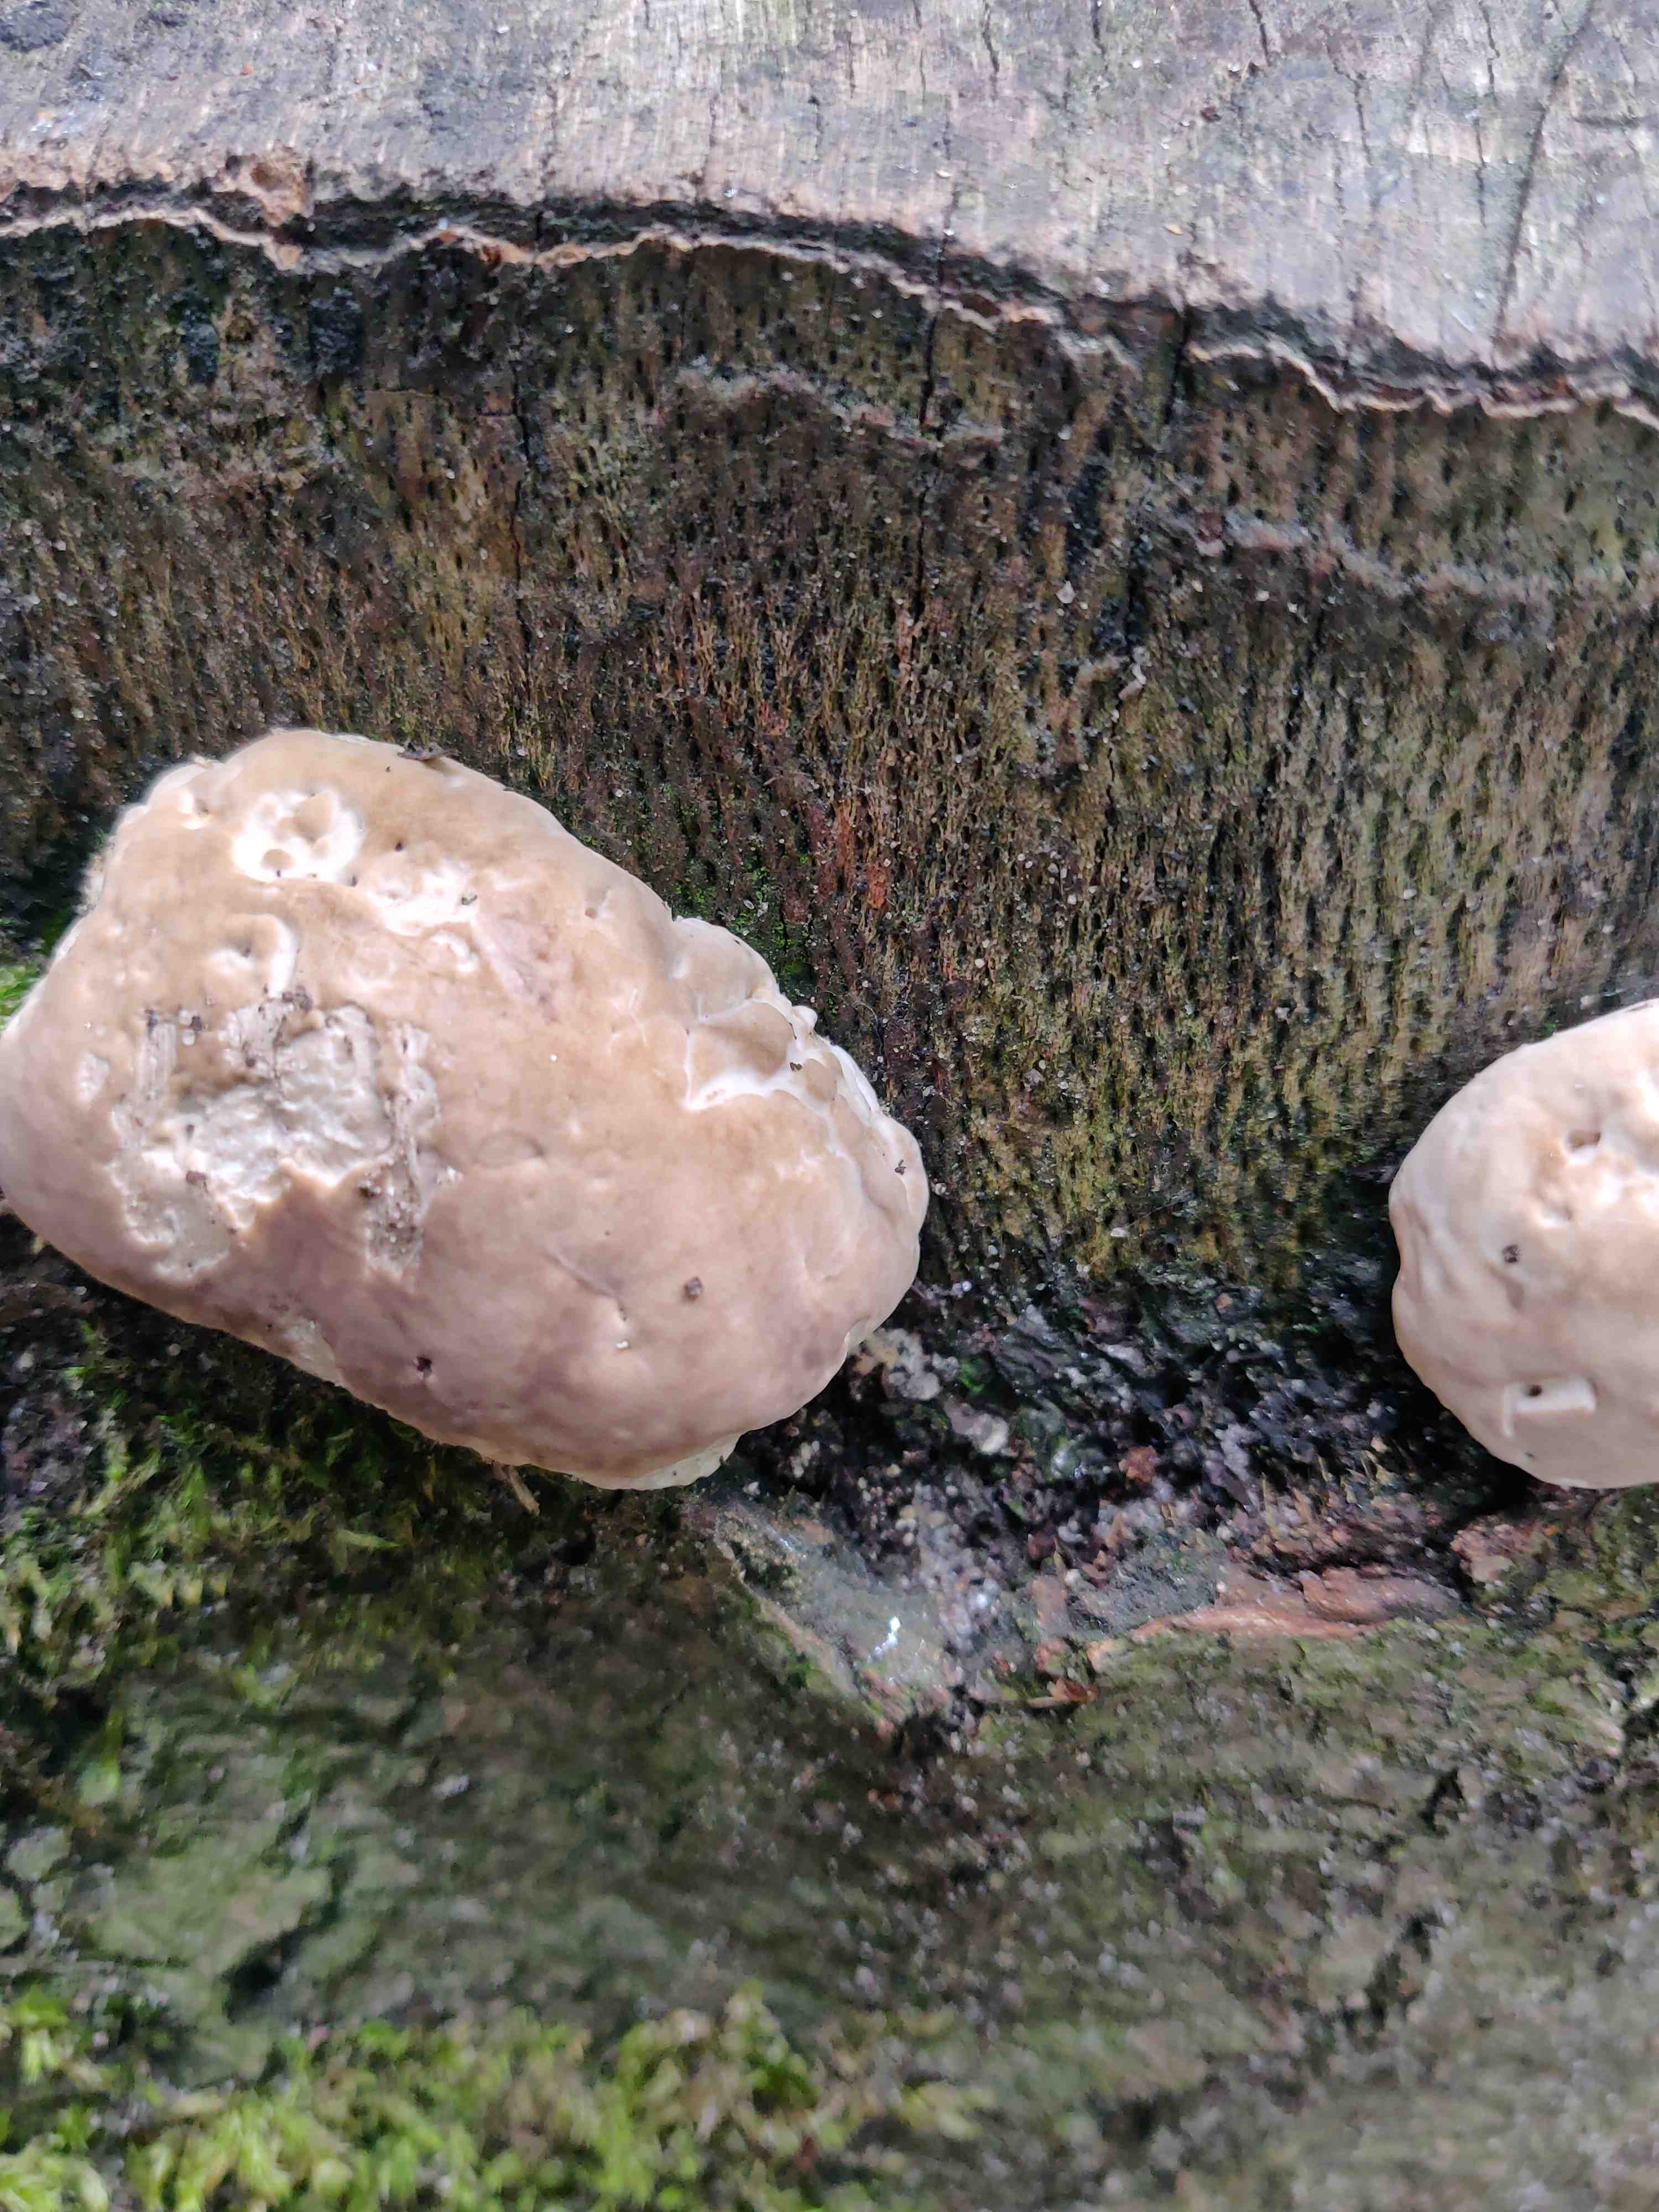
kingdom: Fungi
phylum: Basidiomycota
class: Agaricomycetes
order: Polyporales
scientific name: Polyporales
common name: poresvampordenen
